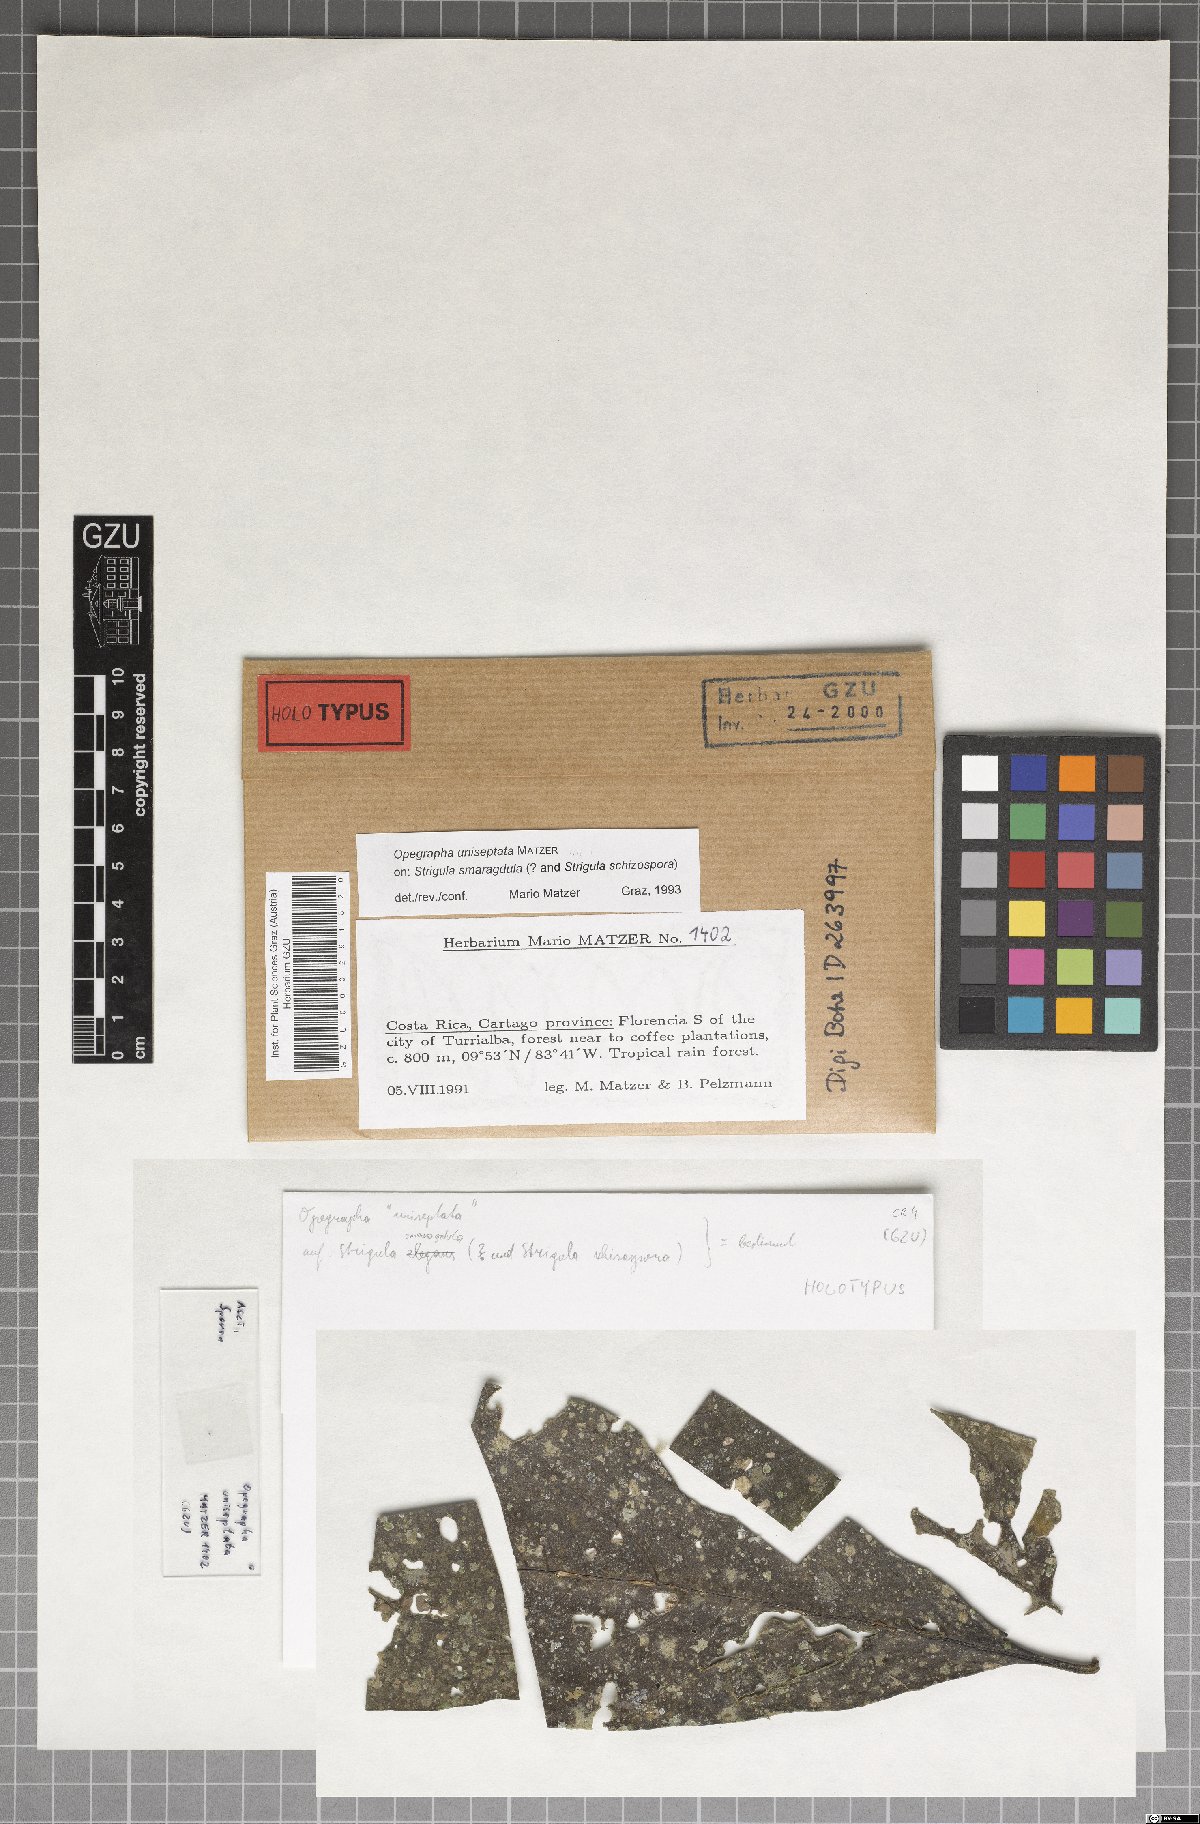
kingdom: Fungi
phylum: Ascomycota
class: Arthoniomycetes
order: Arthoniales
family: Opegraphaceae
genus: Opegrapha
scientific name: Opegrapha
